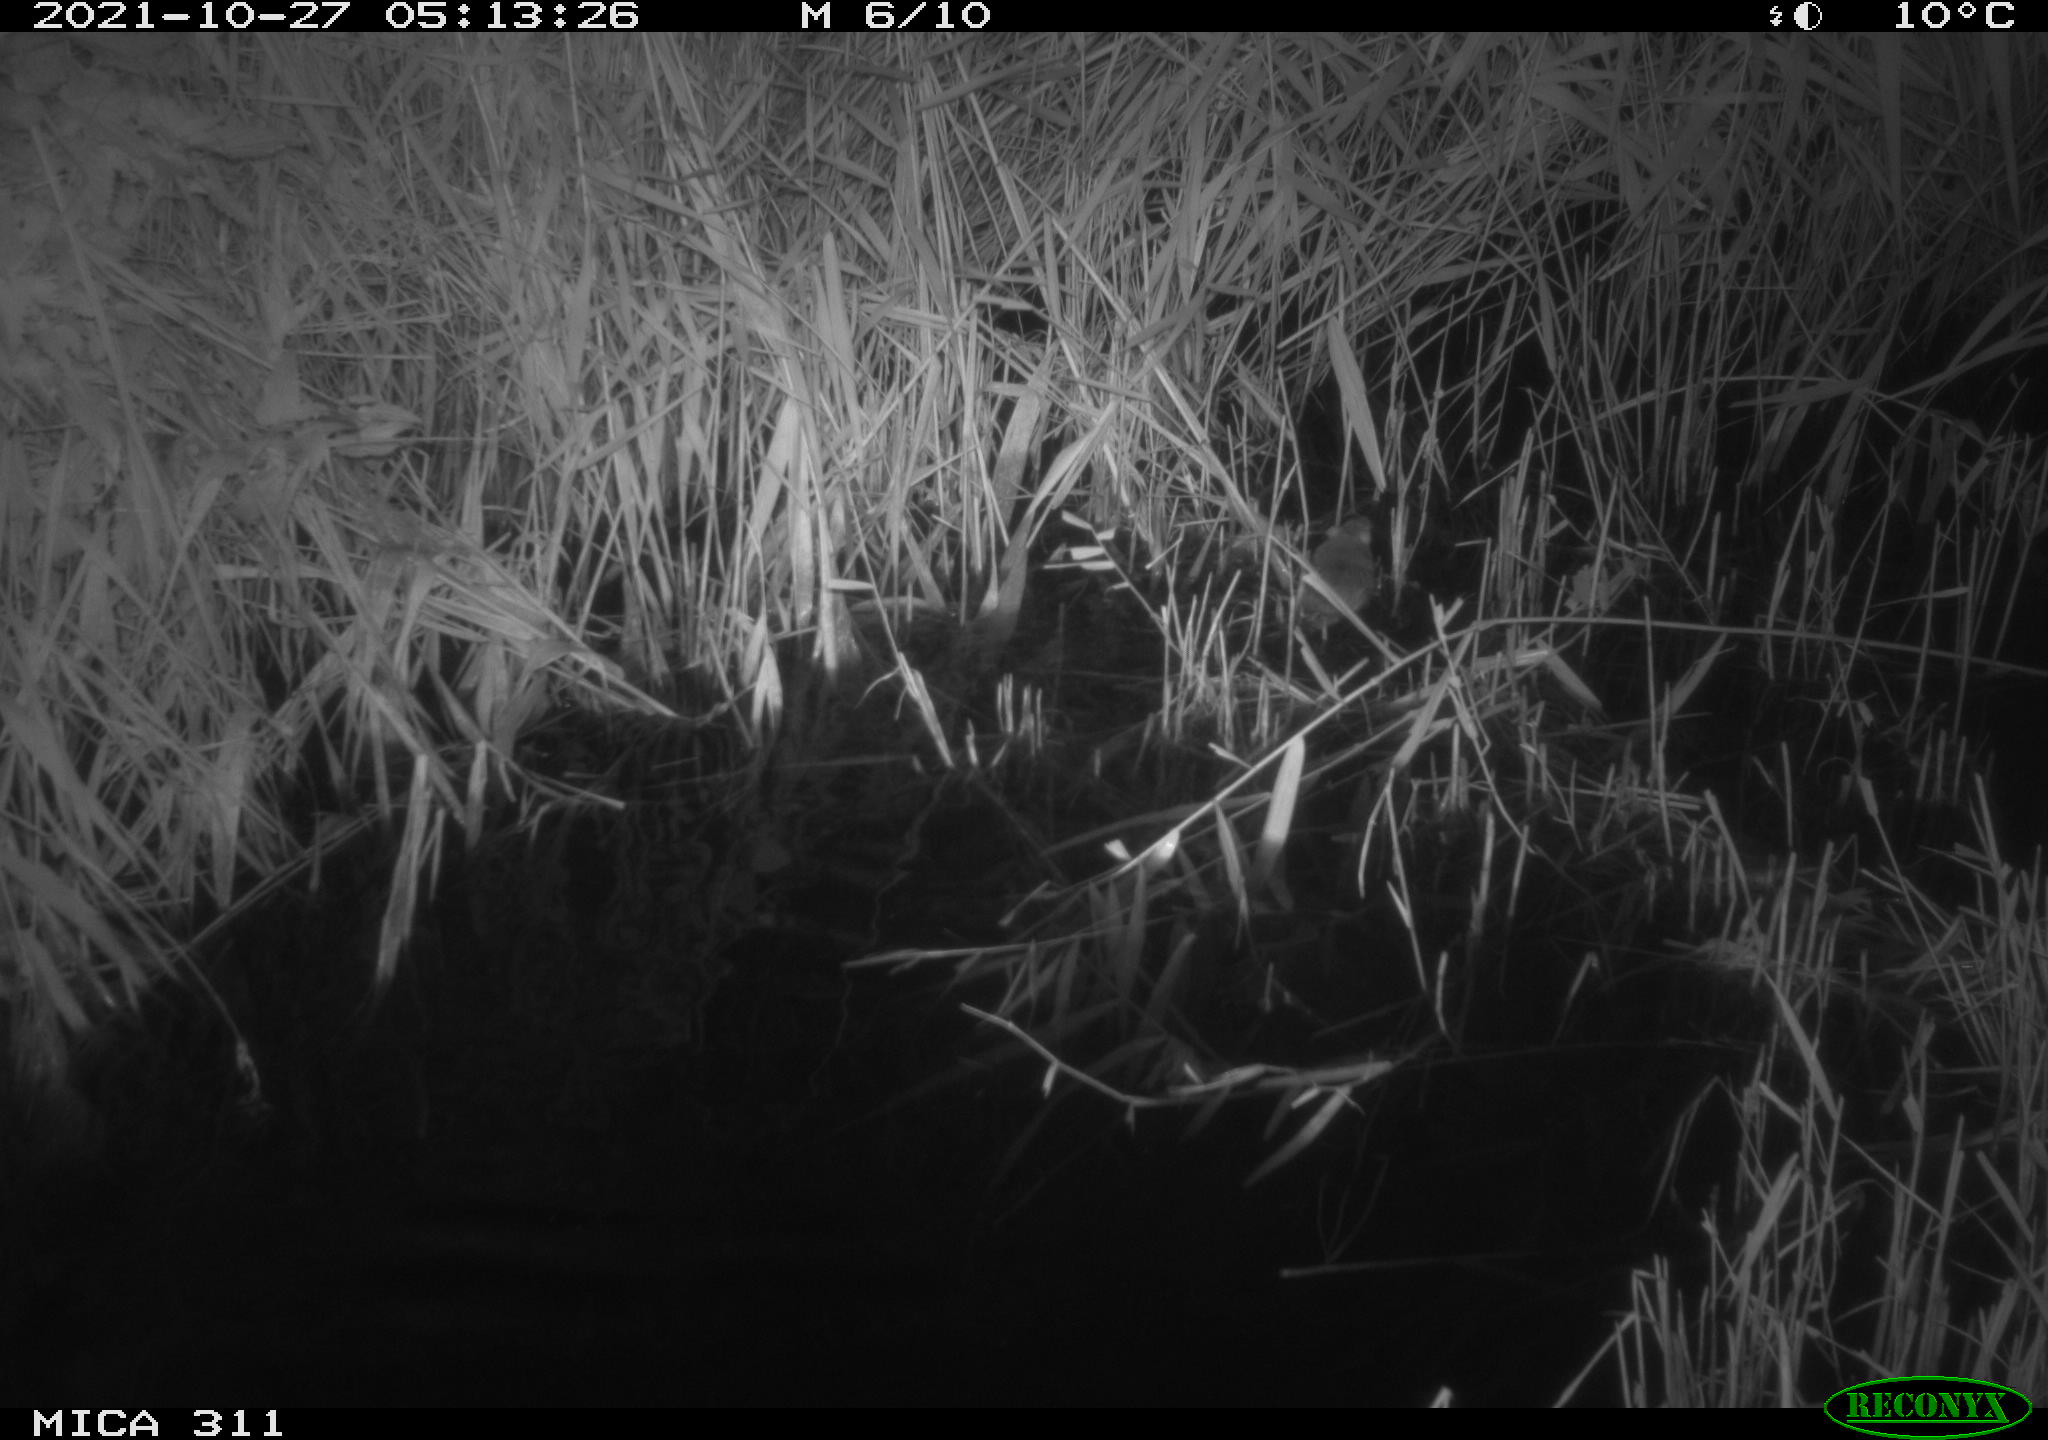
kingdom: Animalia
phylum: Chordata
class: Mammalia
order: Rodentia
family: Muridae
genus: Rattus
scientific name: Rattus norvegicus
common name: Brown rat
